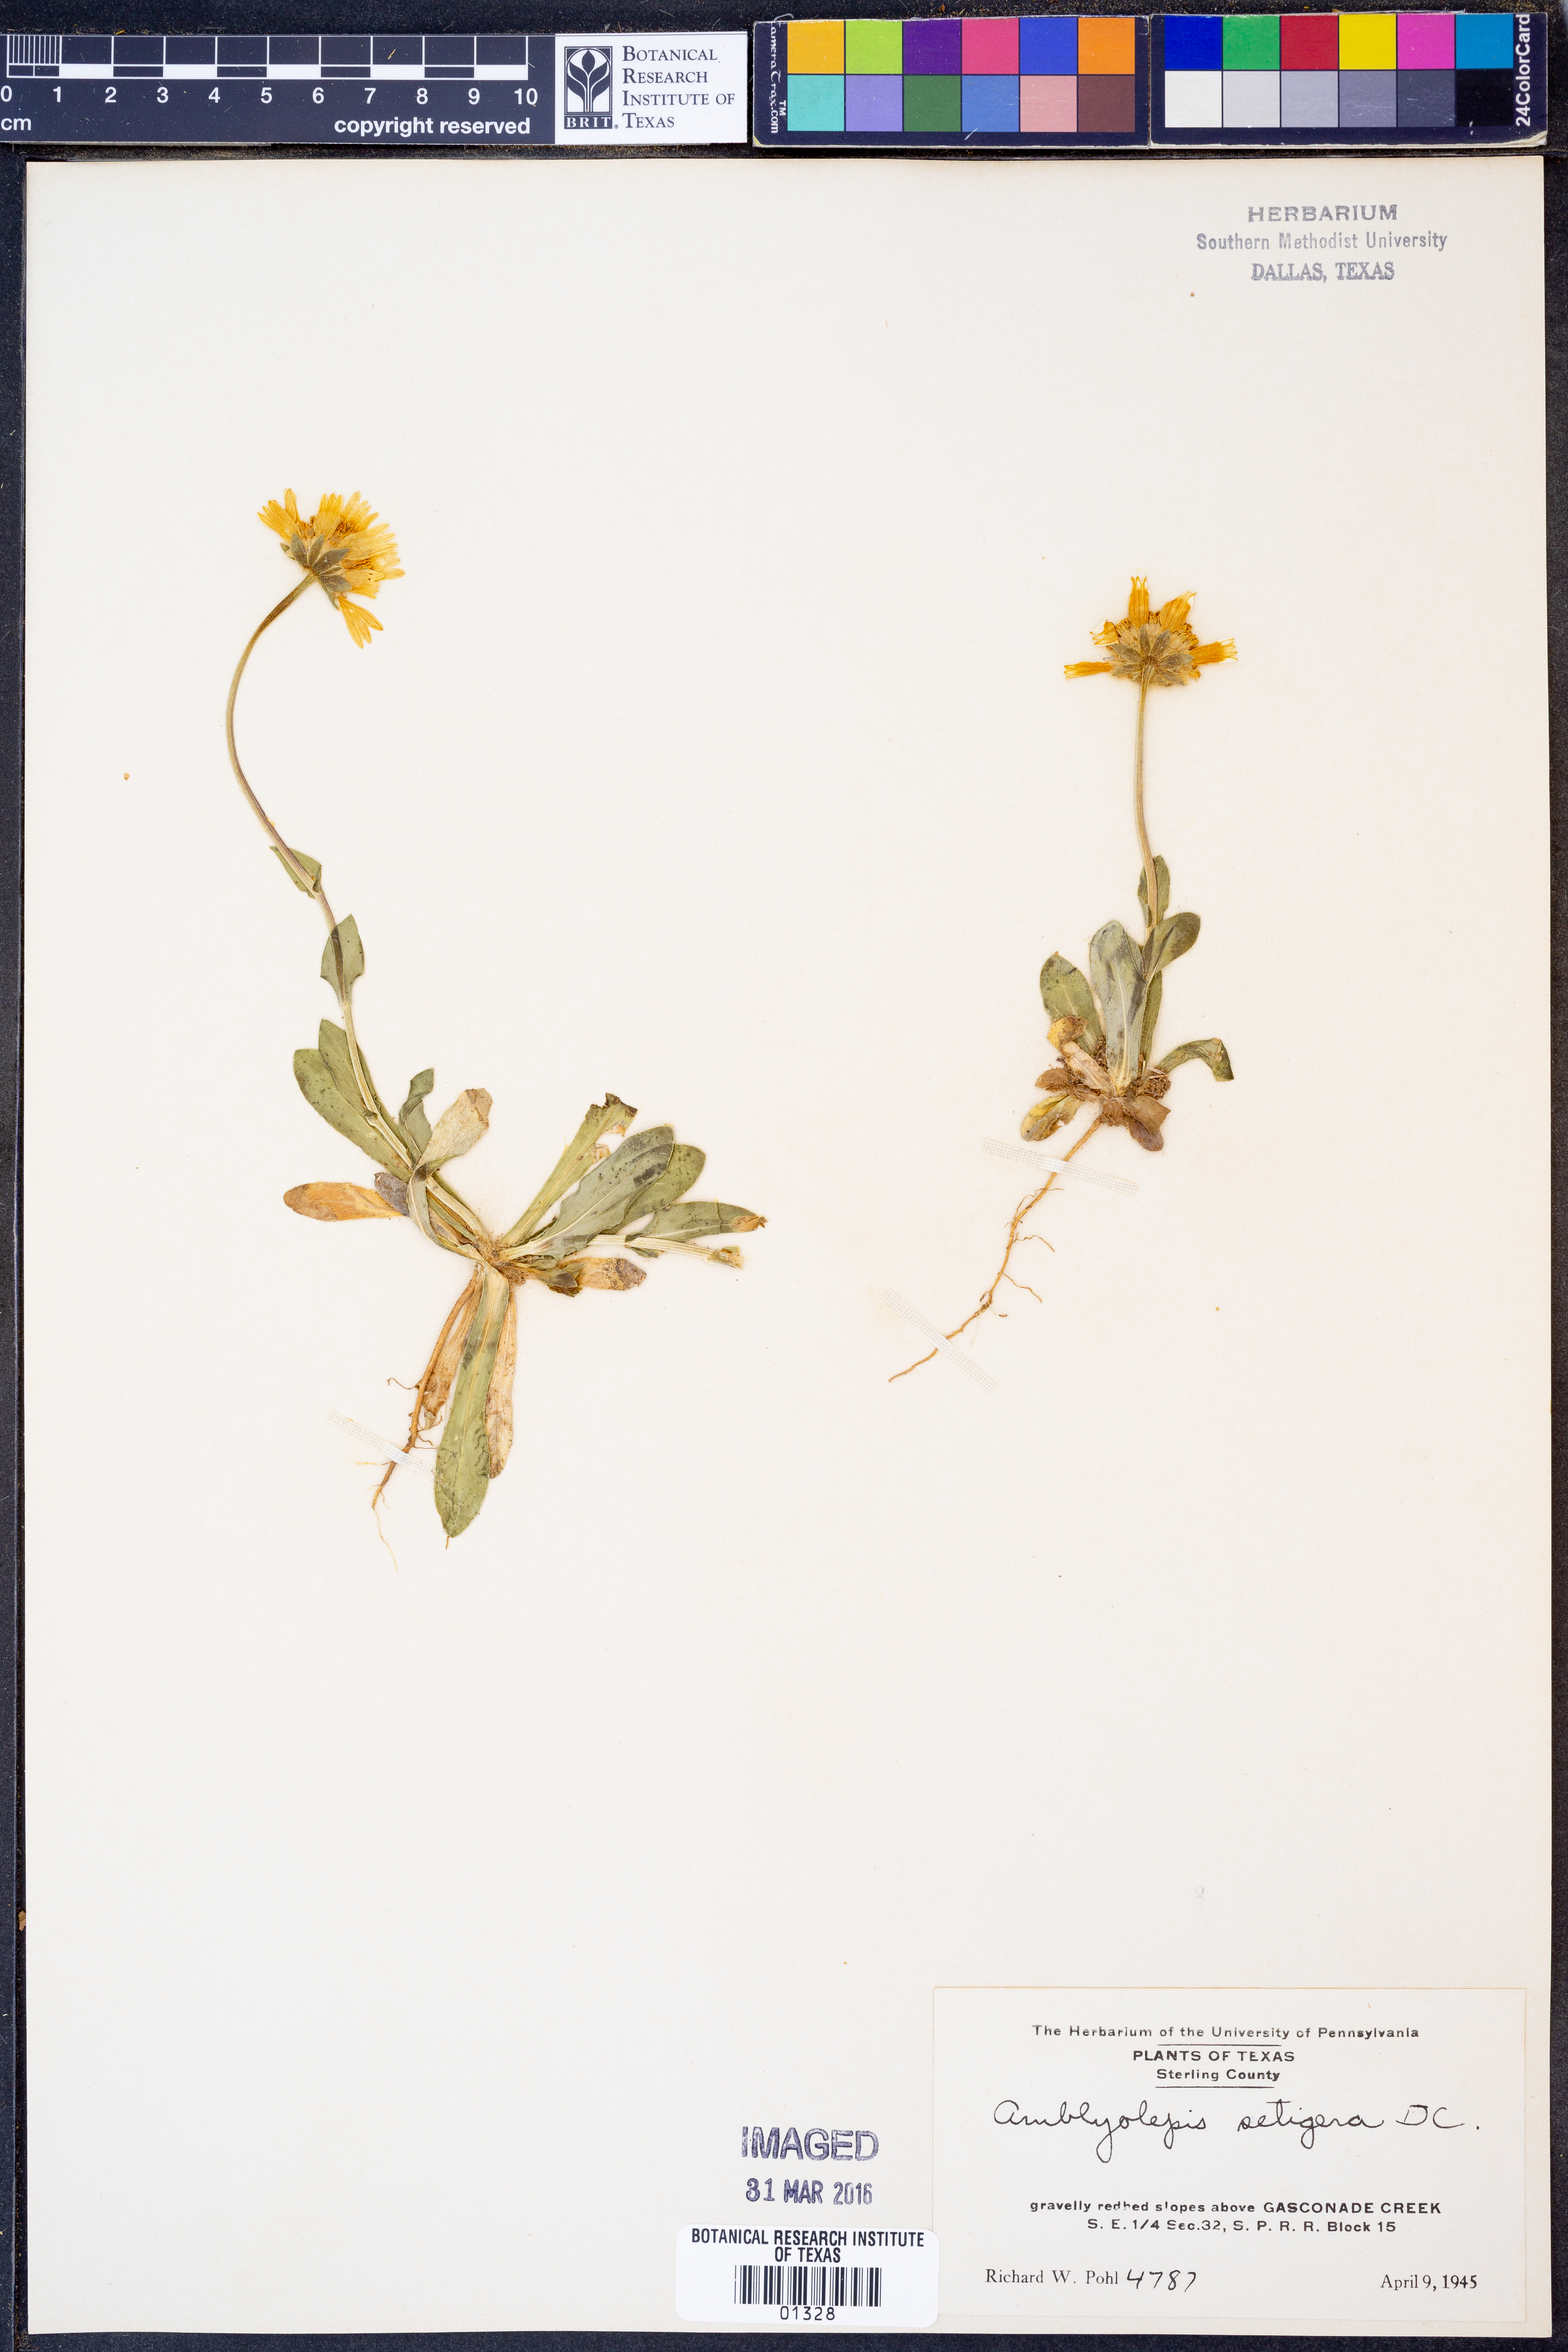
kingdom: Plantae
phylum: Tracheophyta
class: Magnoliopsida
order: Asterales
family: Asteraceae
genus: Amblyolepis
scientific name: Amblyolepis setigera
